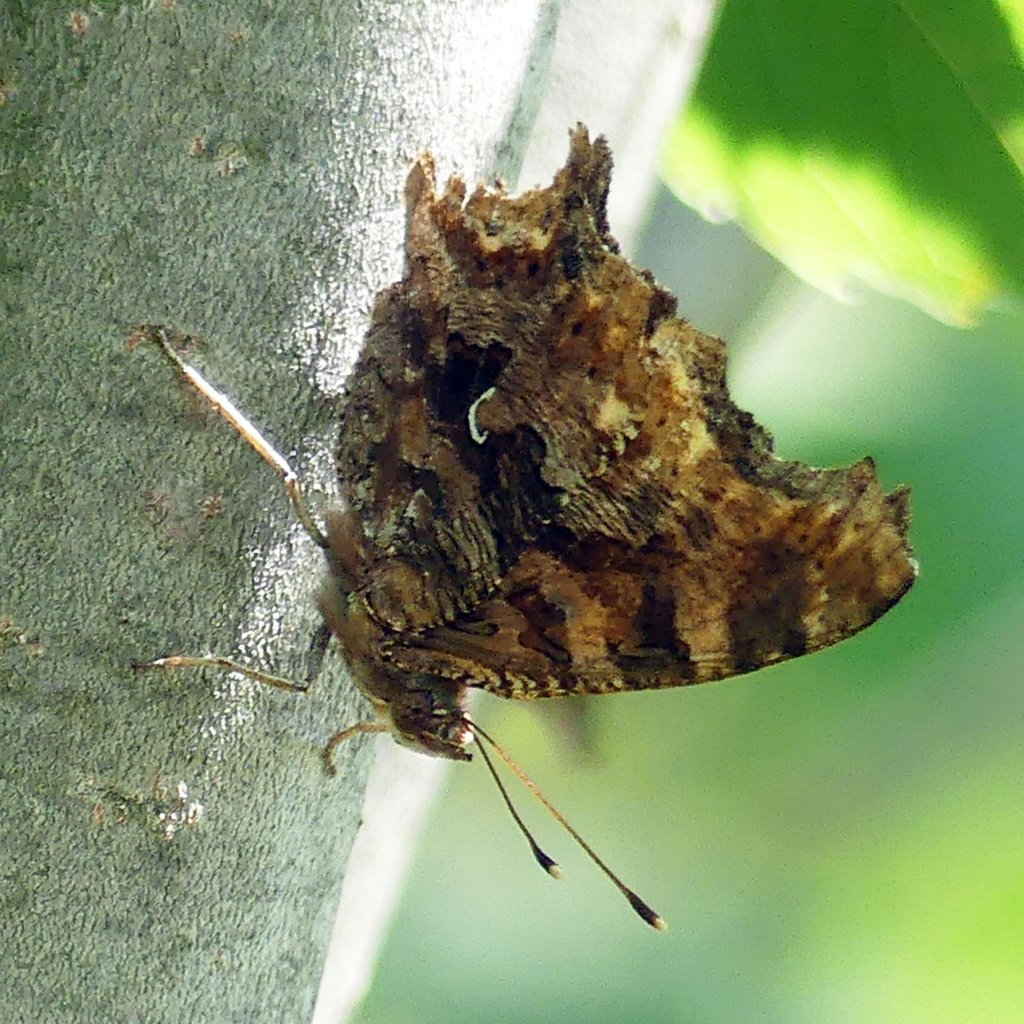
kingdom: Animalia
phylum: Arthropoda
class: Insecta
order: Lepidoptera
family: Nymphalidae
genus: Polygonia
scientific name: Polygonia comma
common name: Eastern Comma
